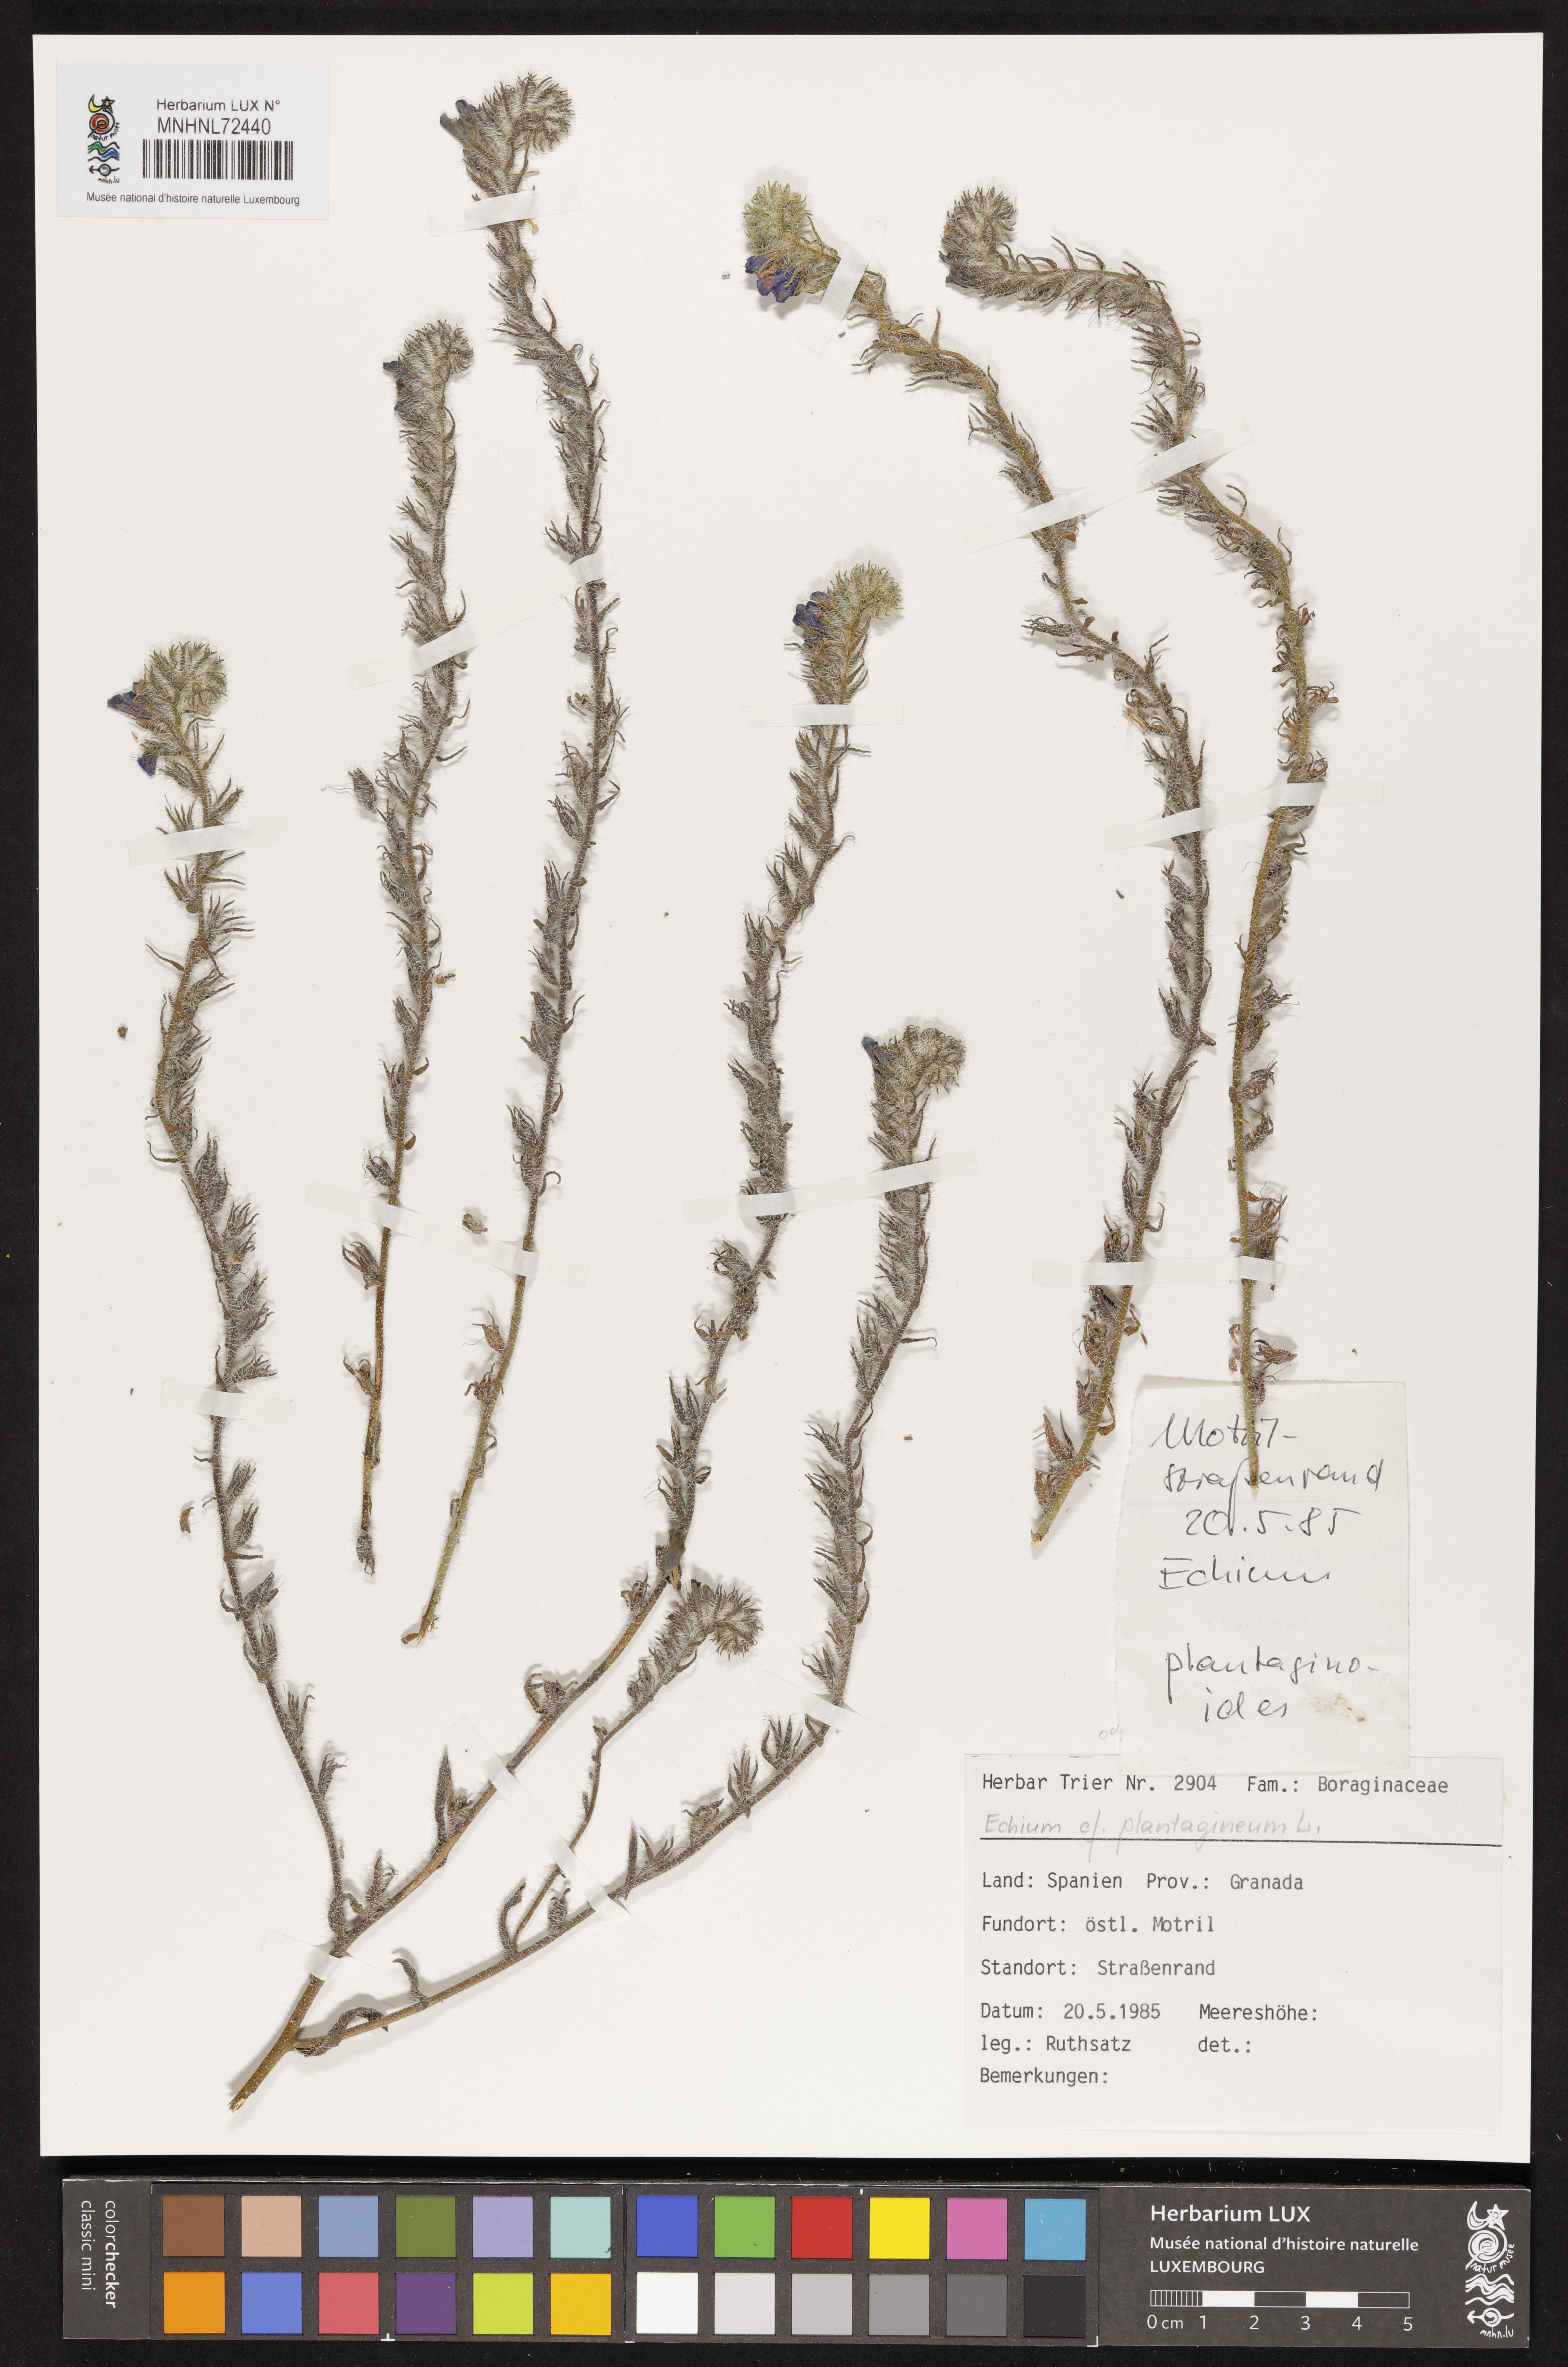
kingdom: Plantae
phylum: Tracheophyta
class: Magnoliopsida
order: Boraginales
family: Boraginaceae
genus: Echium
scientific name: Echium plantagineum
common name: Purple viper's-bugloss
